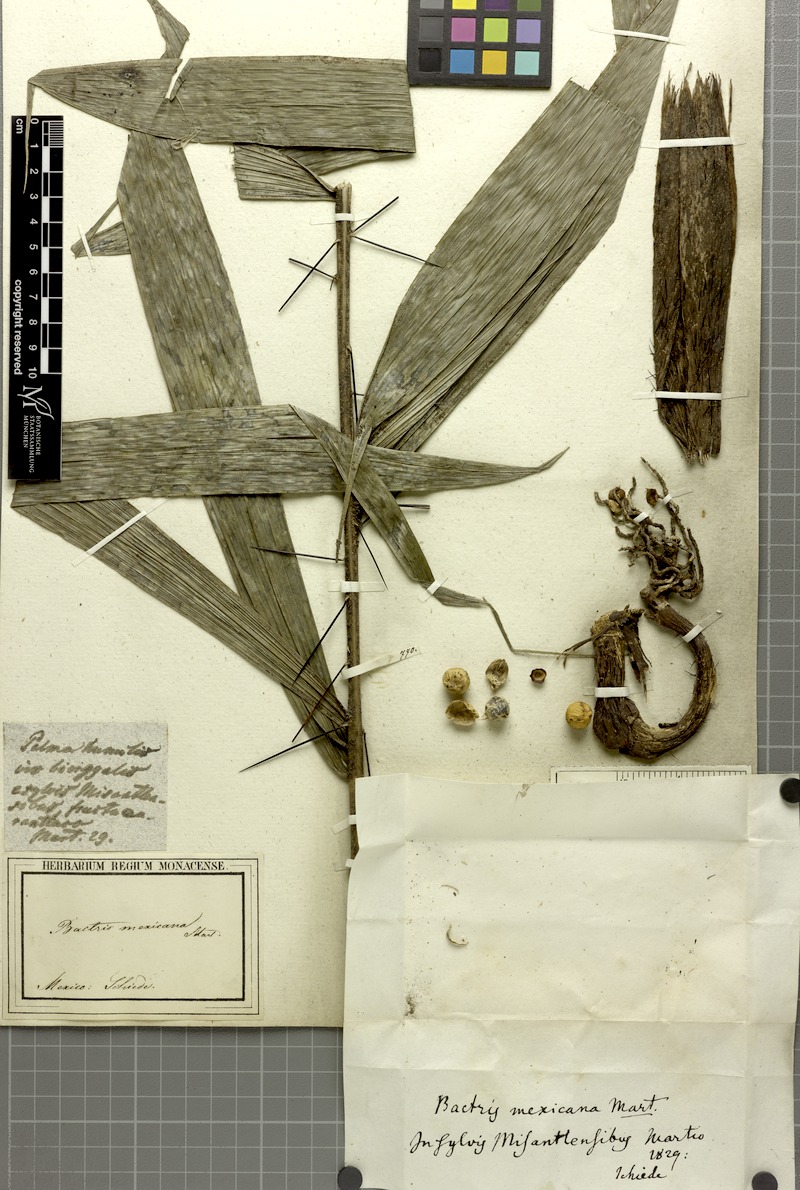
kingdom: Plantae
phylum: Tracheophyta
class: Liliopsida
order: Arecales
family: Arecaceae
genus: Bactris
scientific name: Bactris mexicana
